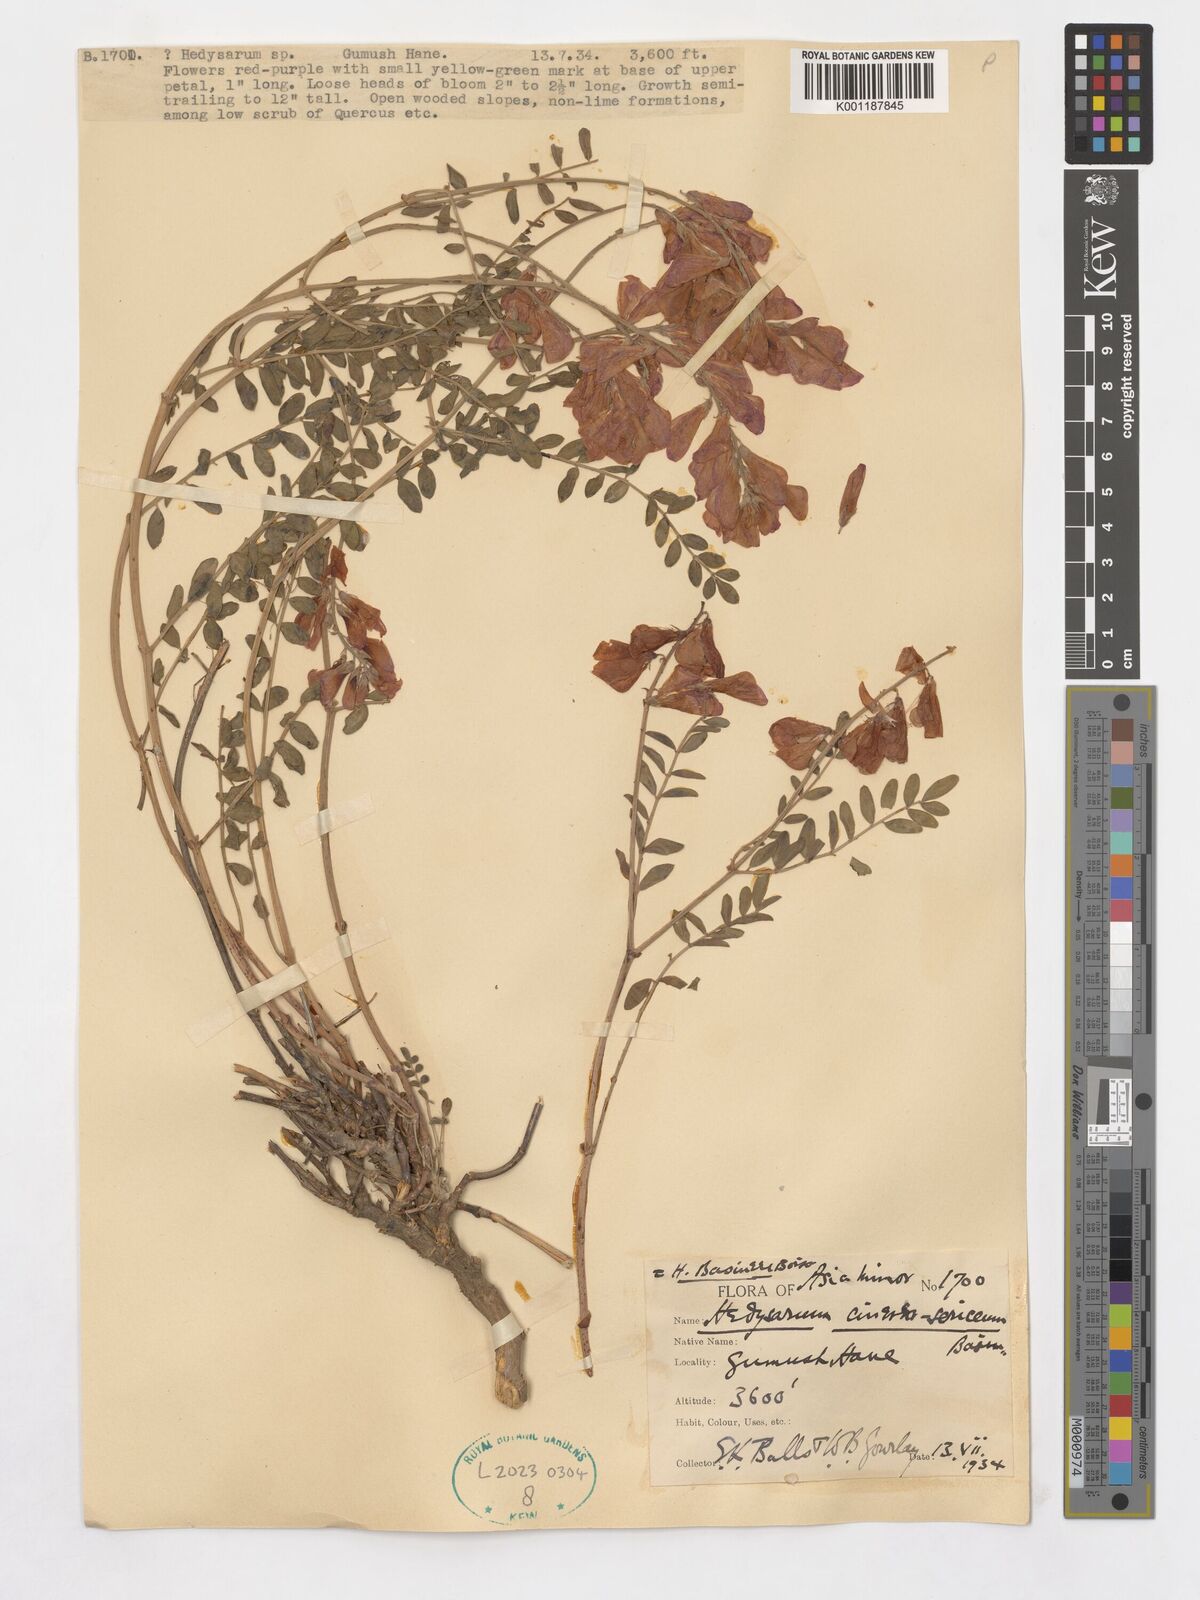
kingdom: Plantae
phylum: Tracheophyta
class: Magnoliopsida
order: Fabales
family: Fabaceae
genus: Hedysarum
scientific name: Hedysarum nitidum
